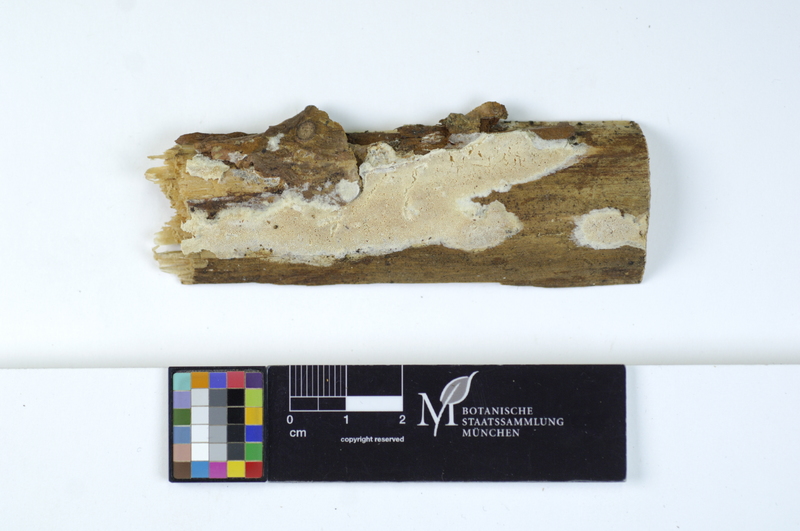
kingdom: Fungi
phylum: Basidiomycota
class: Agaricomycetes
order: Polyporales
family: Incrustoporiaceae
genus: Skeletocutis
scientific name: Skeletocutis subincarnata
